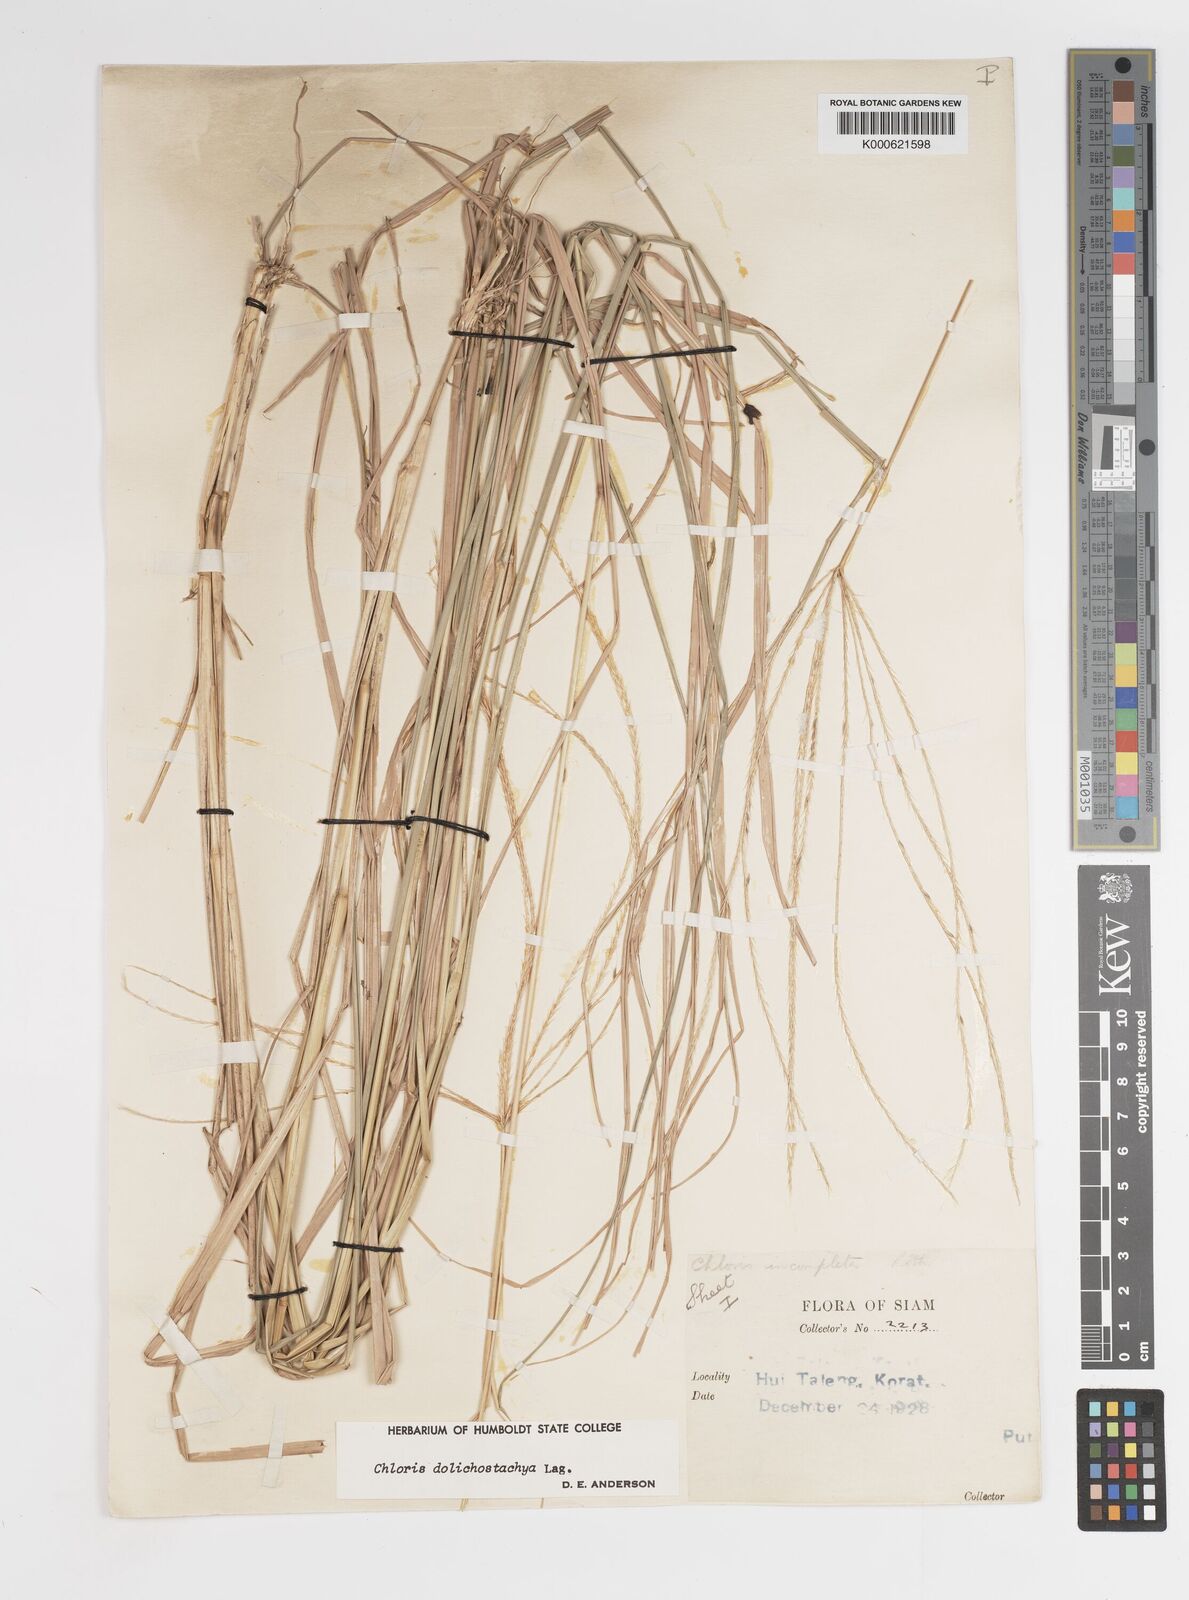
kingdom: Plantae
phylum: Tracheophyta
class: Liliopsida
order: Poales
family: Poaceae
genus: Enteropogon
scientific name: Enteropogon dolichostachyus
